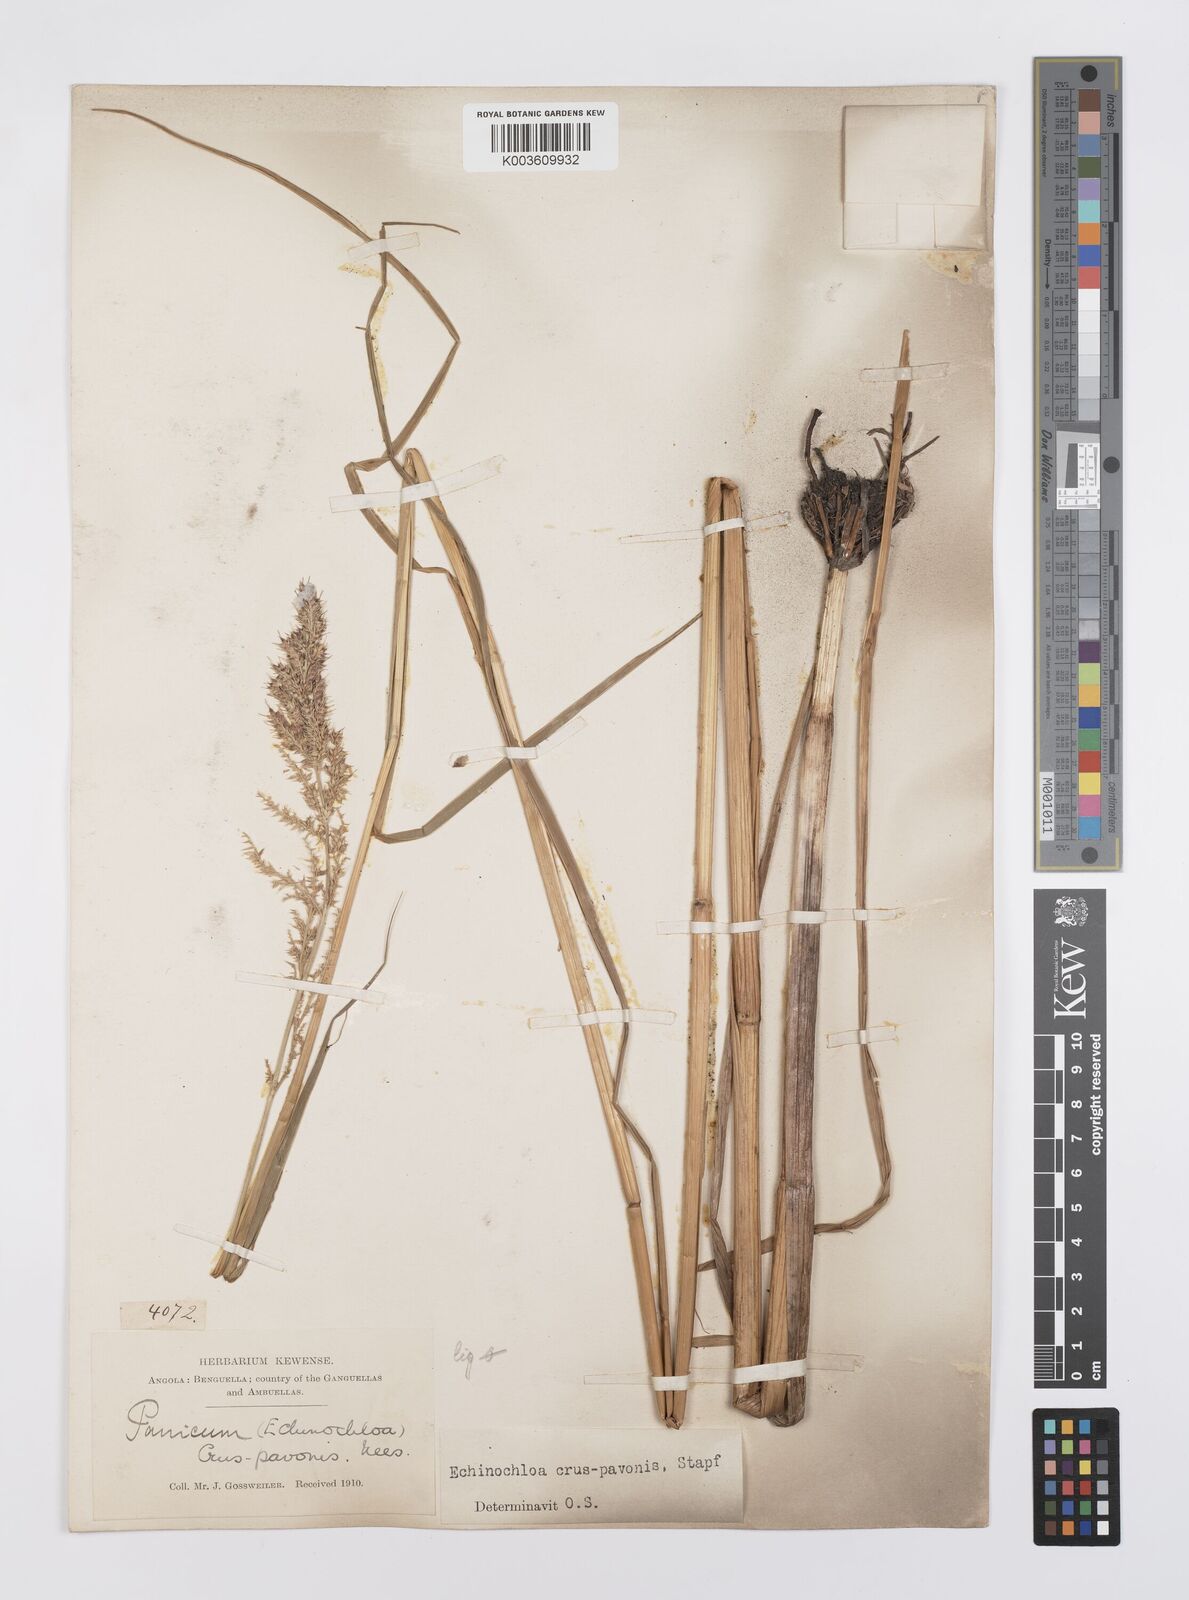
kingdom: Plantae
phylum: Tracheophyta
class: Liliopsida
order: Poales
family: Poaceae
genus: Echinochloa
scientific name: Echinochloa crus-pavonis
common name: Gulf cockspur grass
